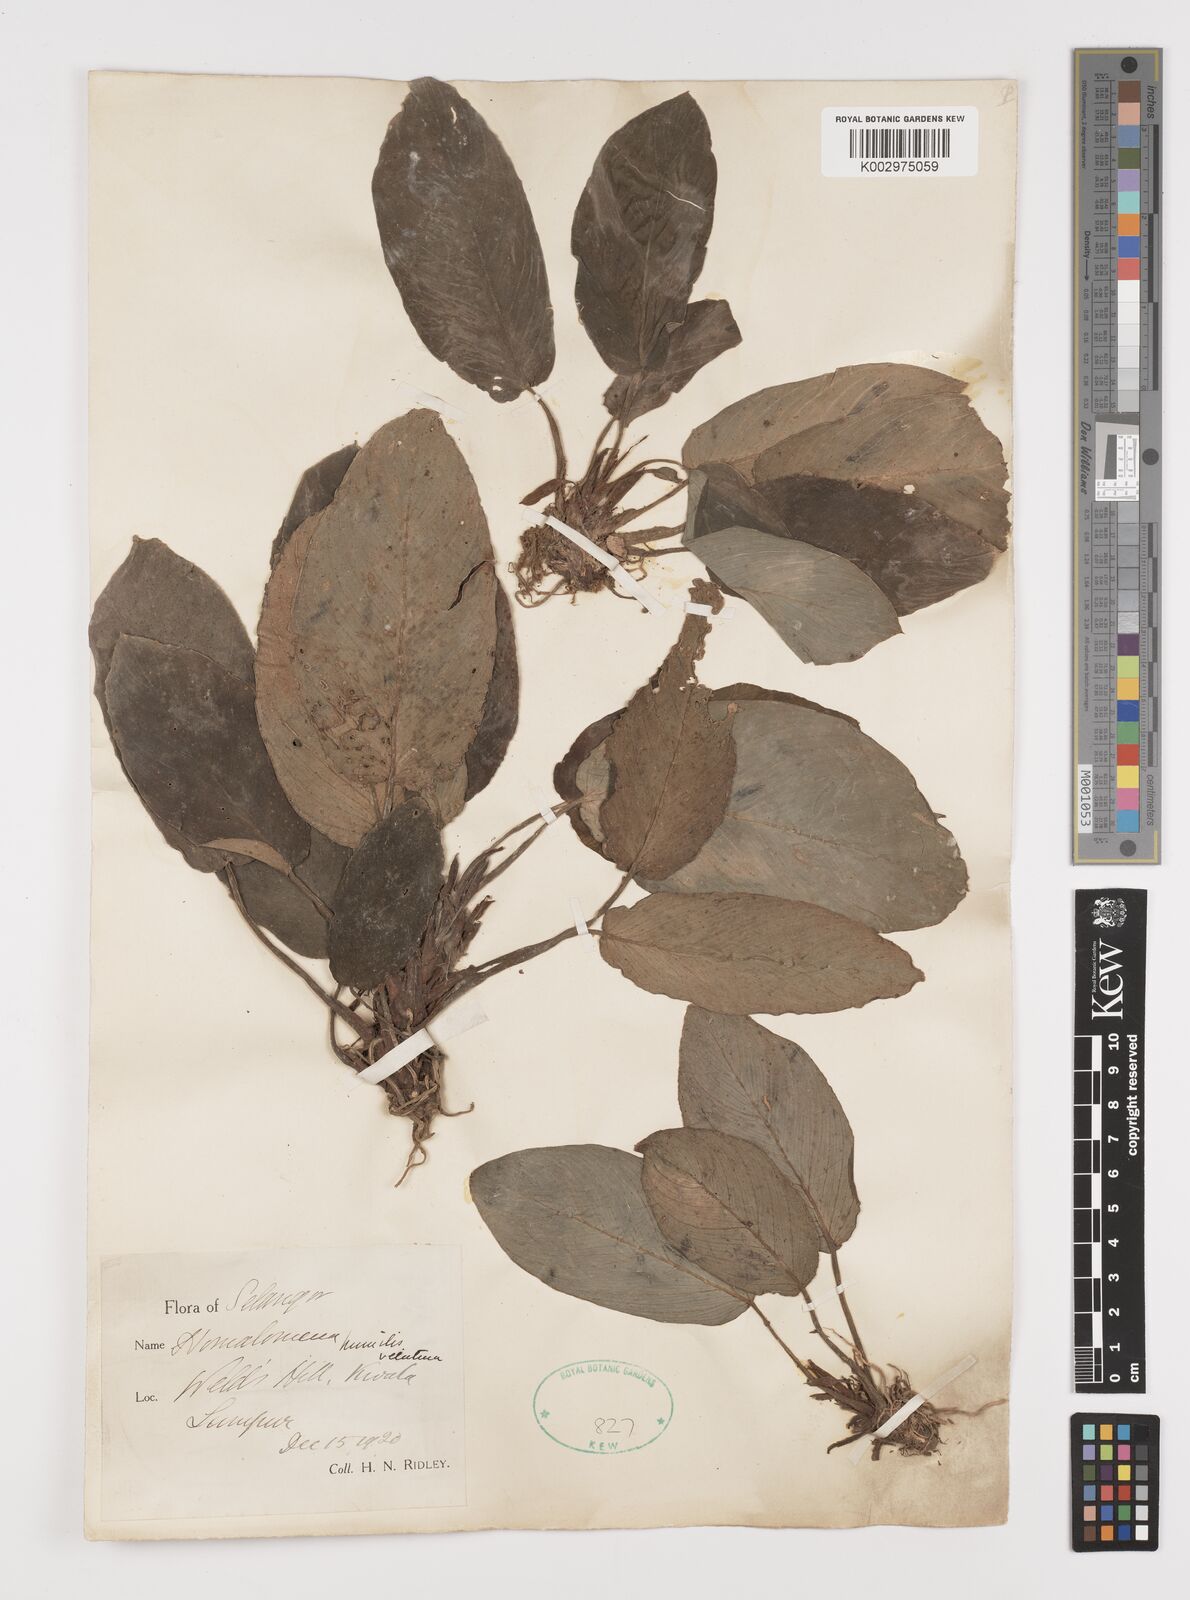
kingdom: Plantae
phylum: Tracheophyta
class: Liliopsida
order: Alismatales
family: Araceae
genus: Homalomena
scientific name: Homalomena humilis
